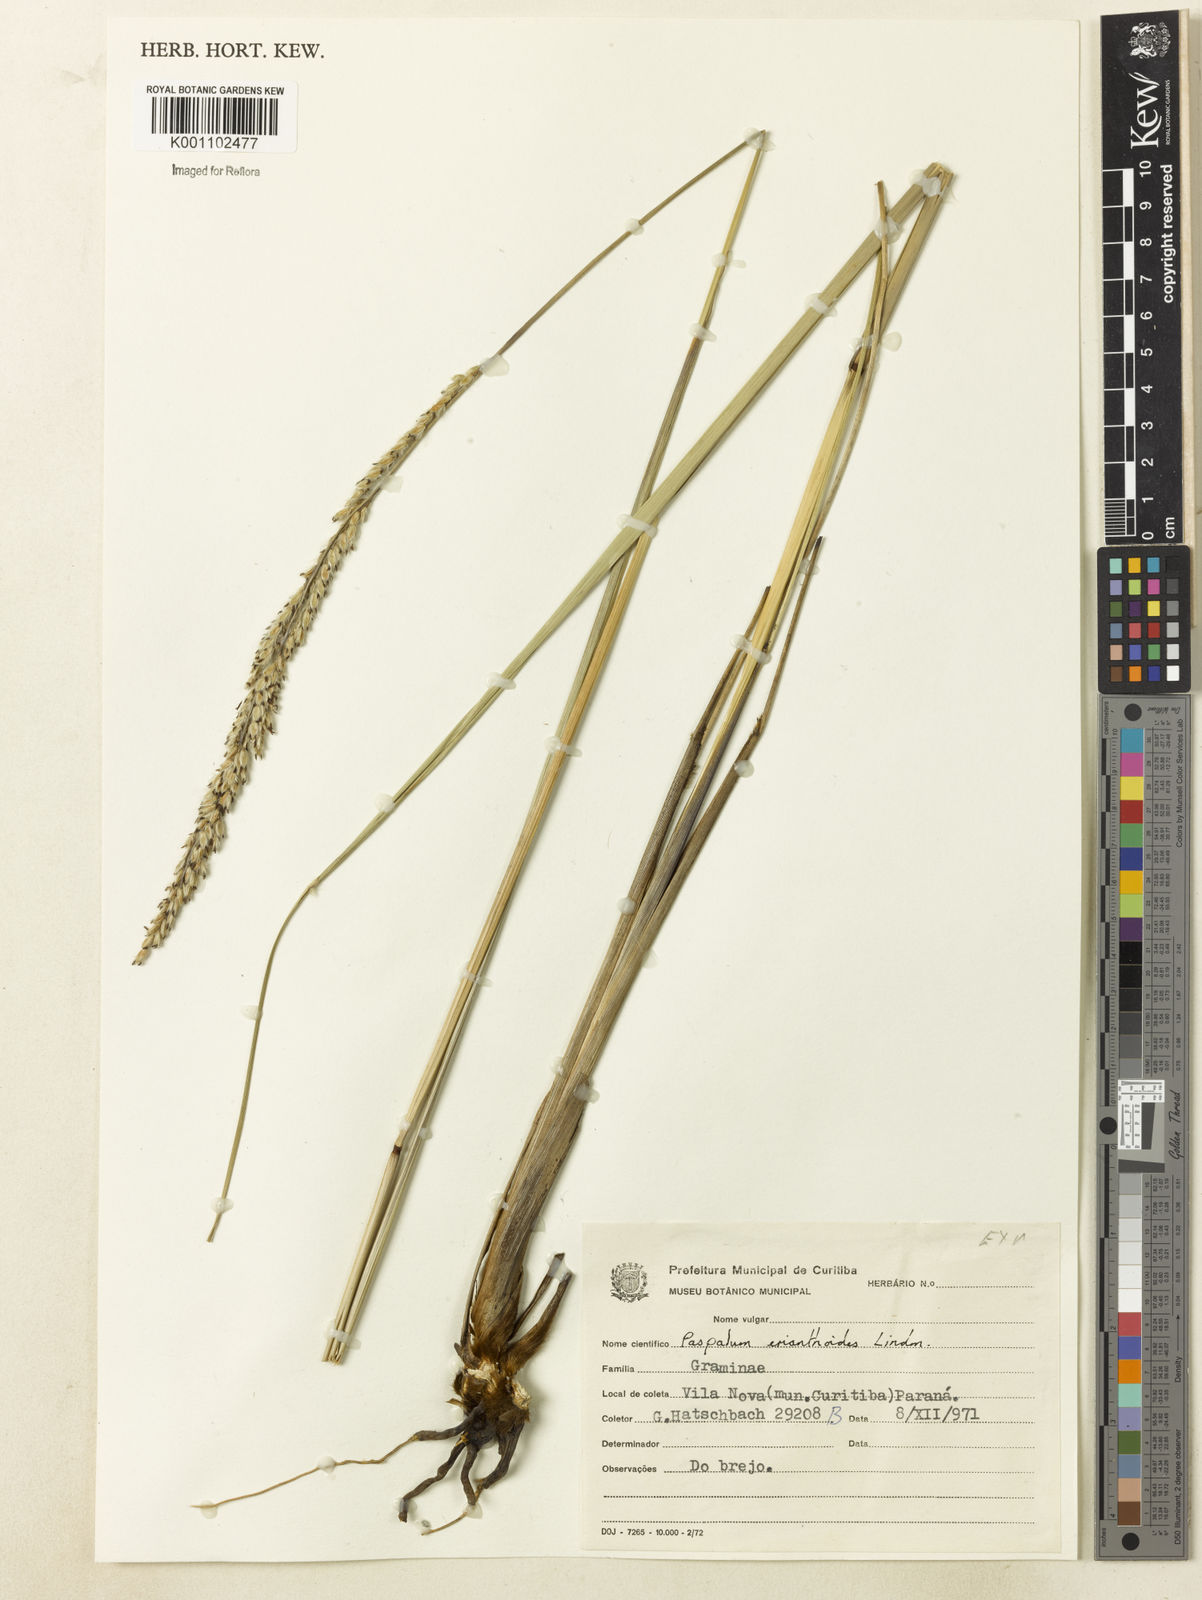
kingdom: Plantae
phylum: Tracheophyta
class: Liliopsida
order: Poales
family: Poaceae
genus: Paspalum
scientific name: Paspalum erianthoides
